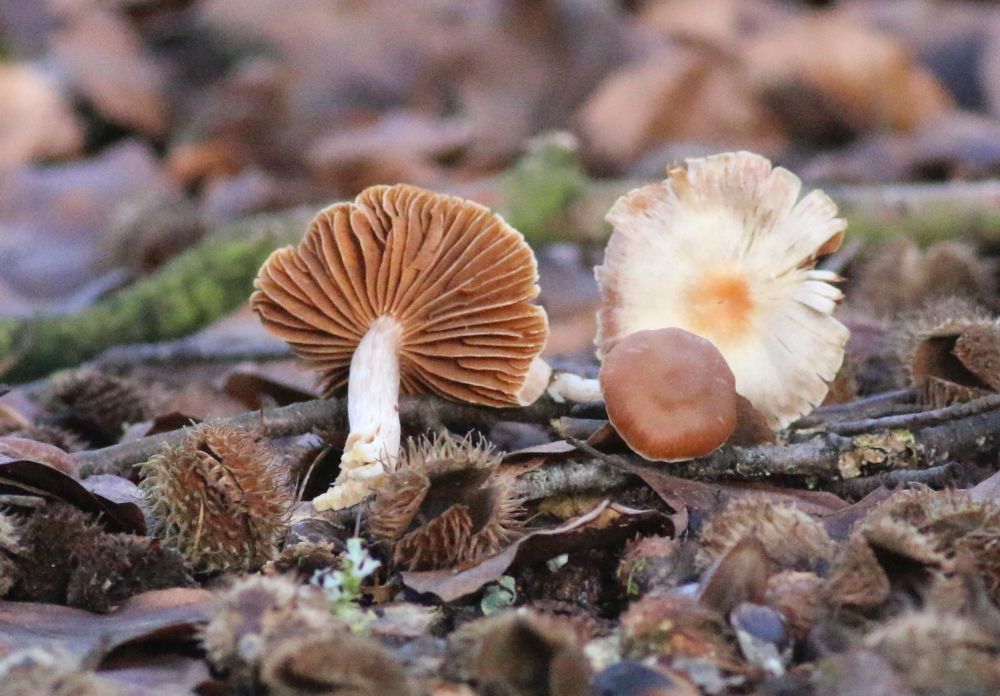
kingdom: Fungi
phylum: Basidiomycota
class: Agaricomycetes
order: Agaricales
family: Tubariaceae
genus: Tubaria
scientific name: Tubaria furfuracea
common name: kliddet fnughat
